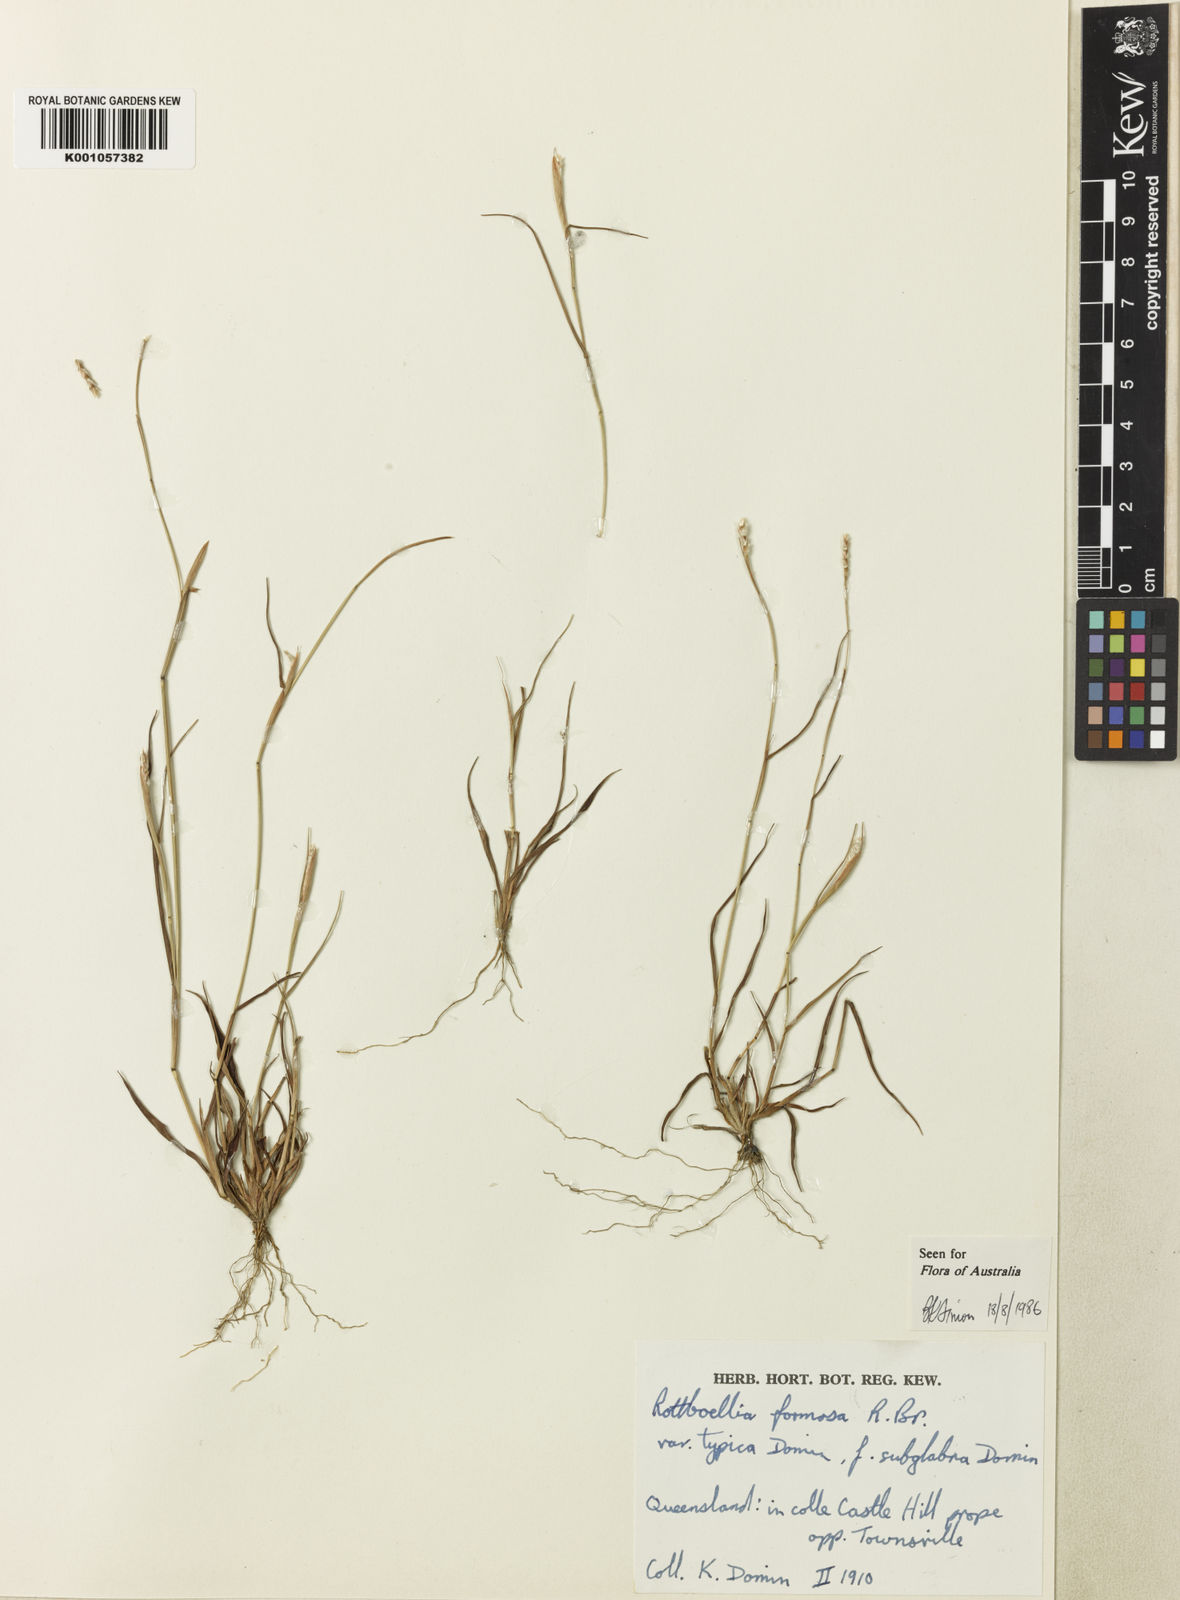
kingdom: Plantae
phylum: Tracheophyta
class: Liliopsida
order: Poales
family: Poaceae
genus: Heteropholis
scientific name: Heteropholis
